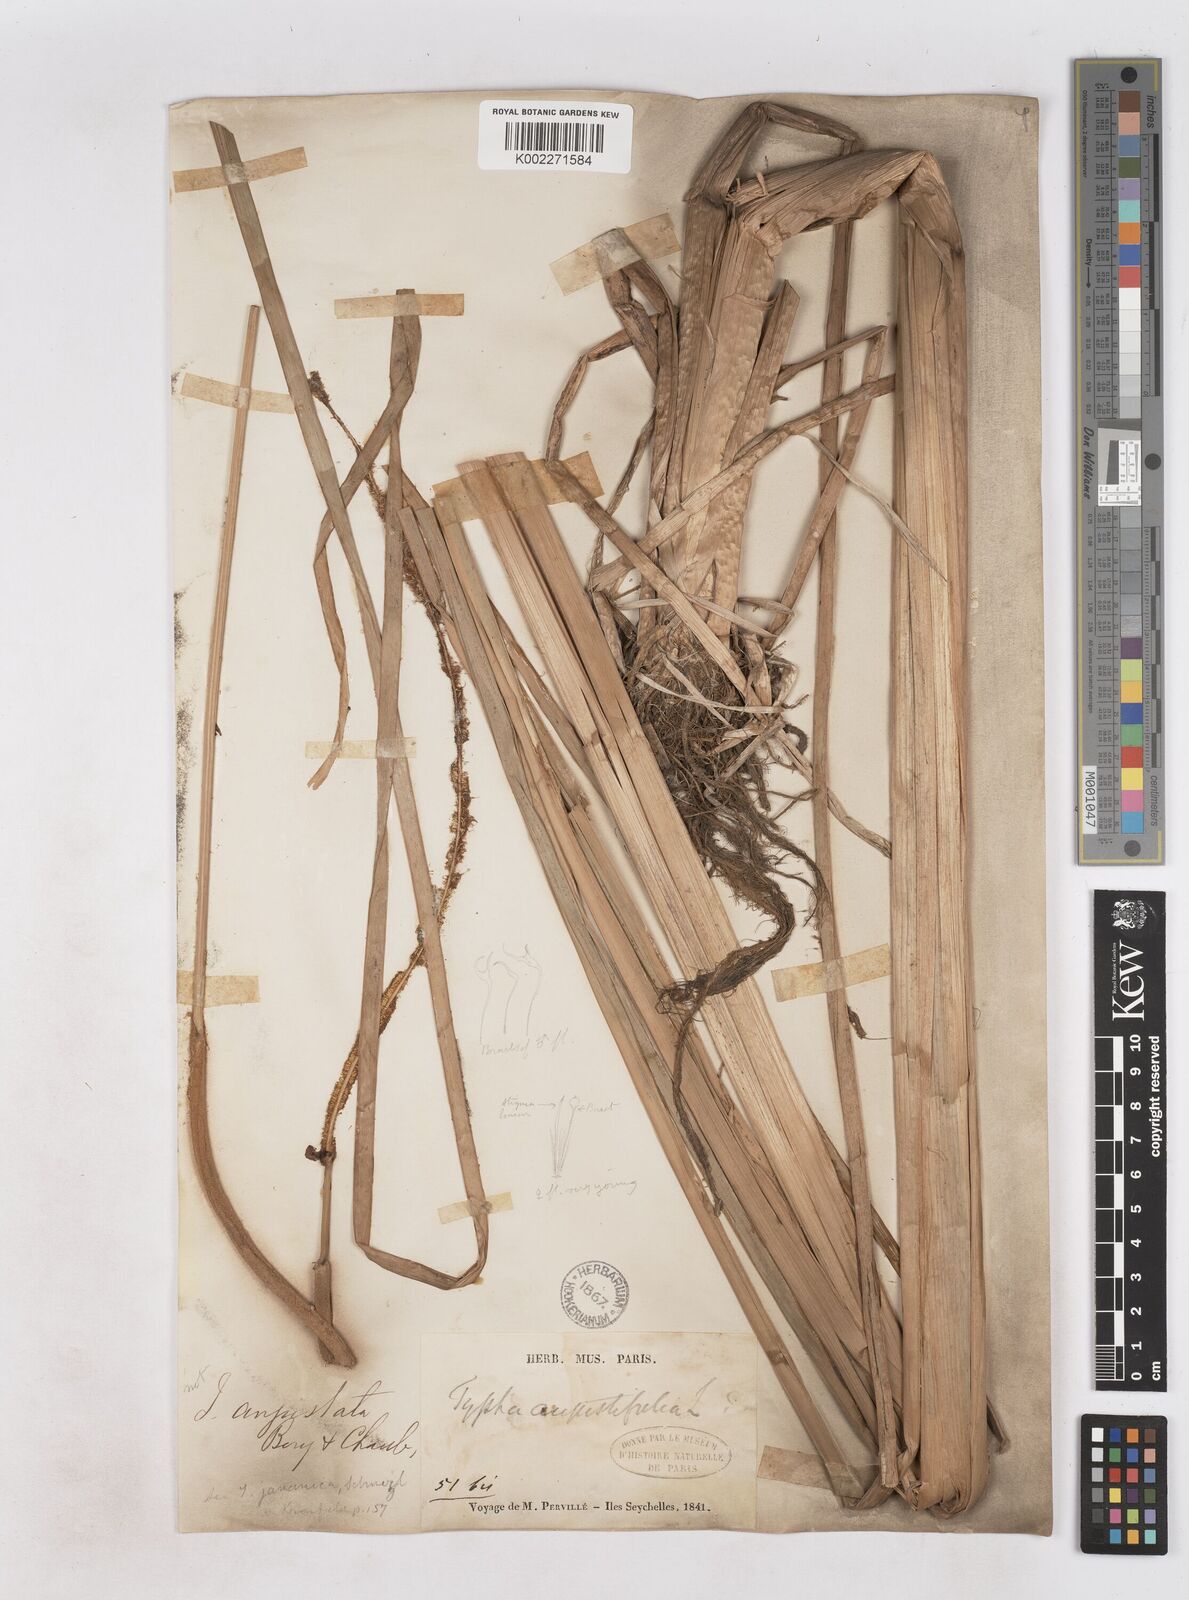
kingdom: Plantae
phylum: Tracheophyta
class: Liliopsida
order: Poales
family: Typhaceae
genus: Typha
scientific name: Typha domingensis
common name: Southern cattail
